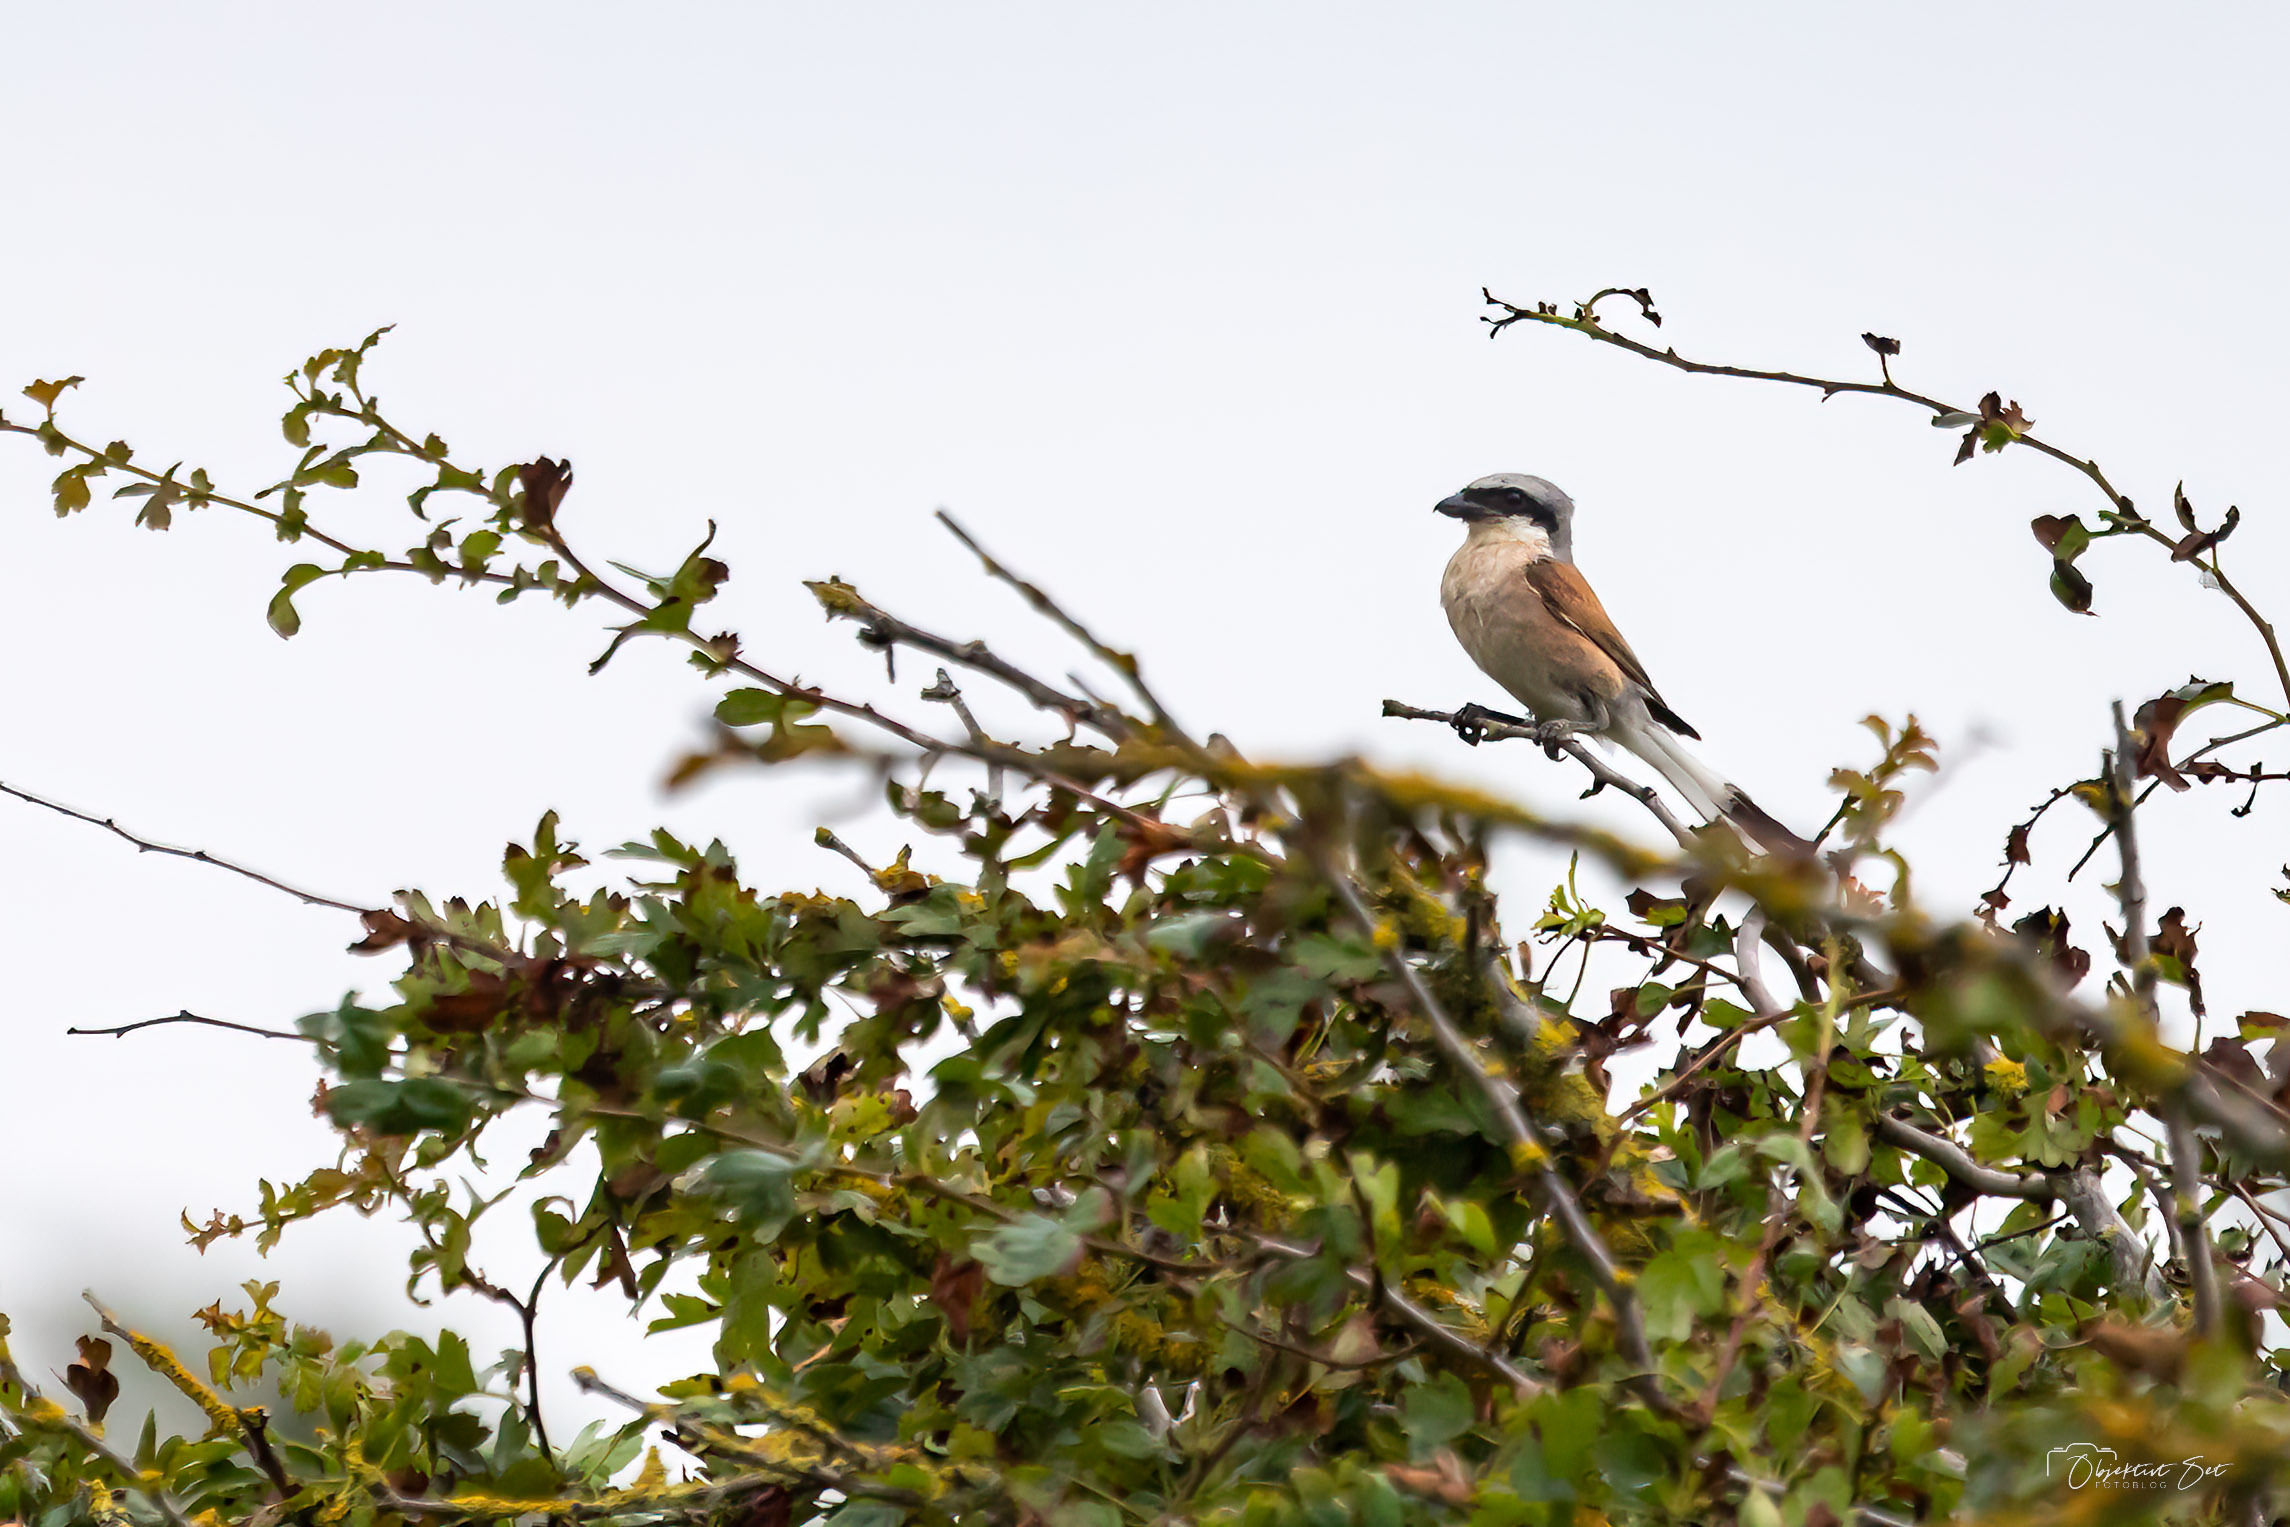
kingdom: Animalia
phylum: Chordata
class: Aves
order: Passeriformes
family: Laniidae
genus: Lanius
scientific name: Lanius collurio
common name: Rødrygget tornskade
